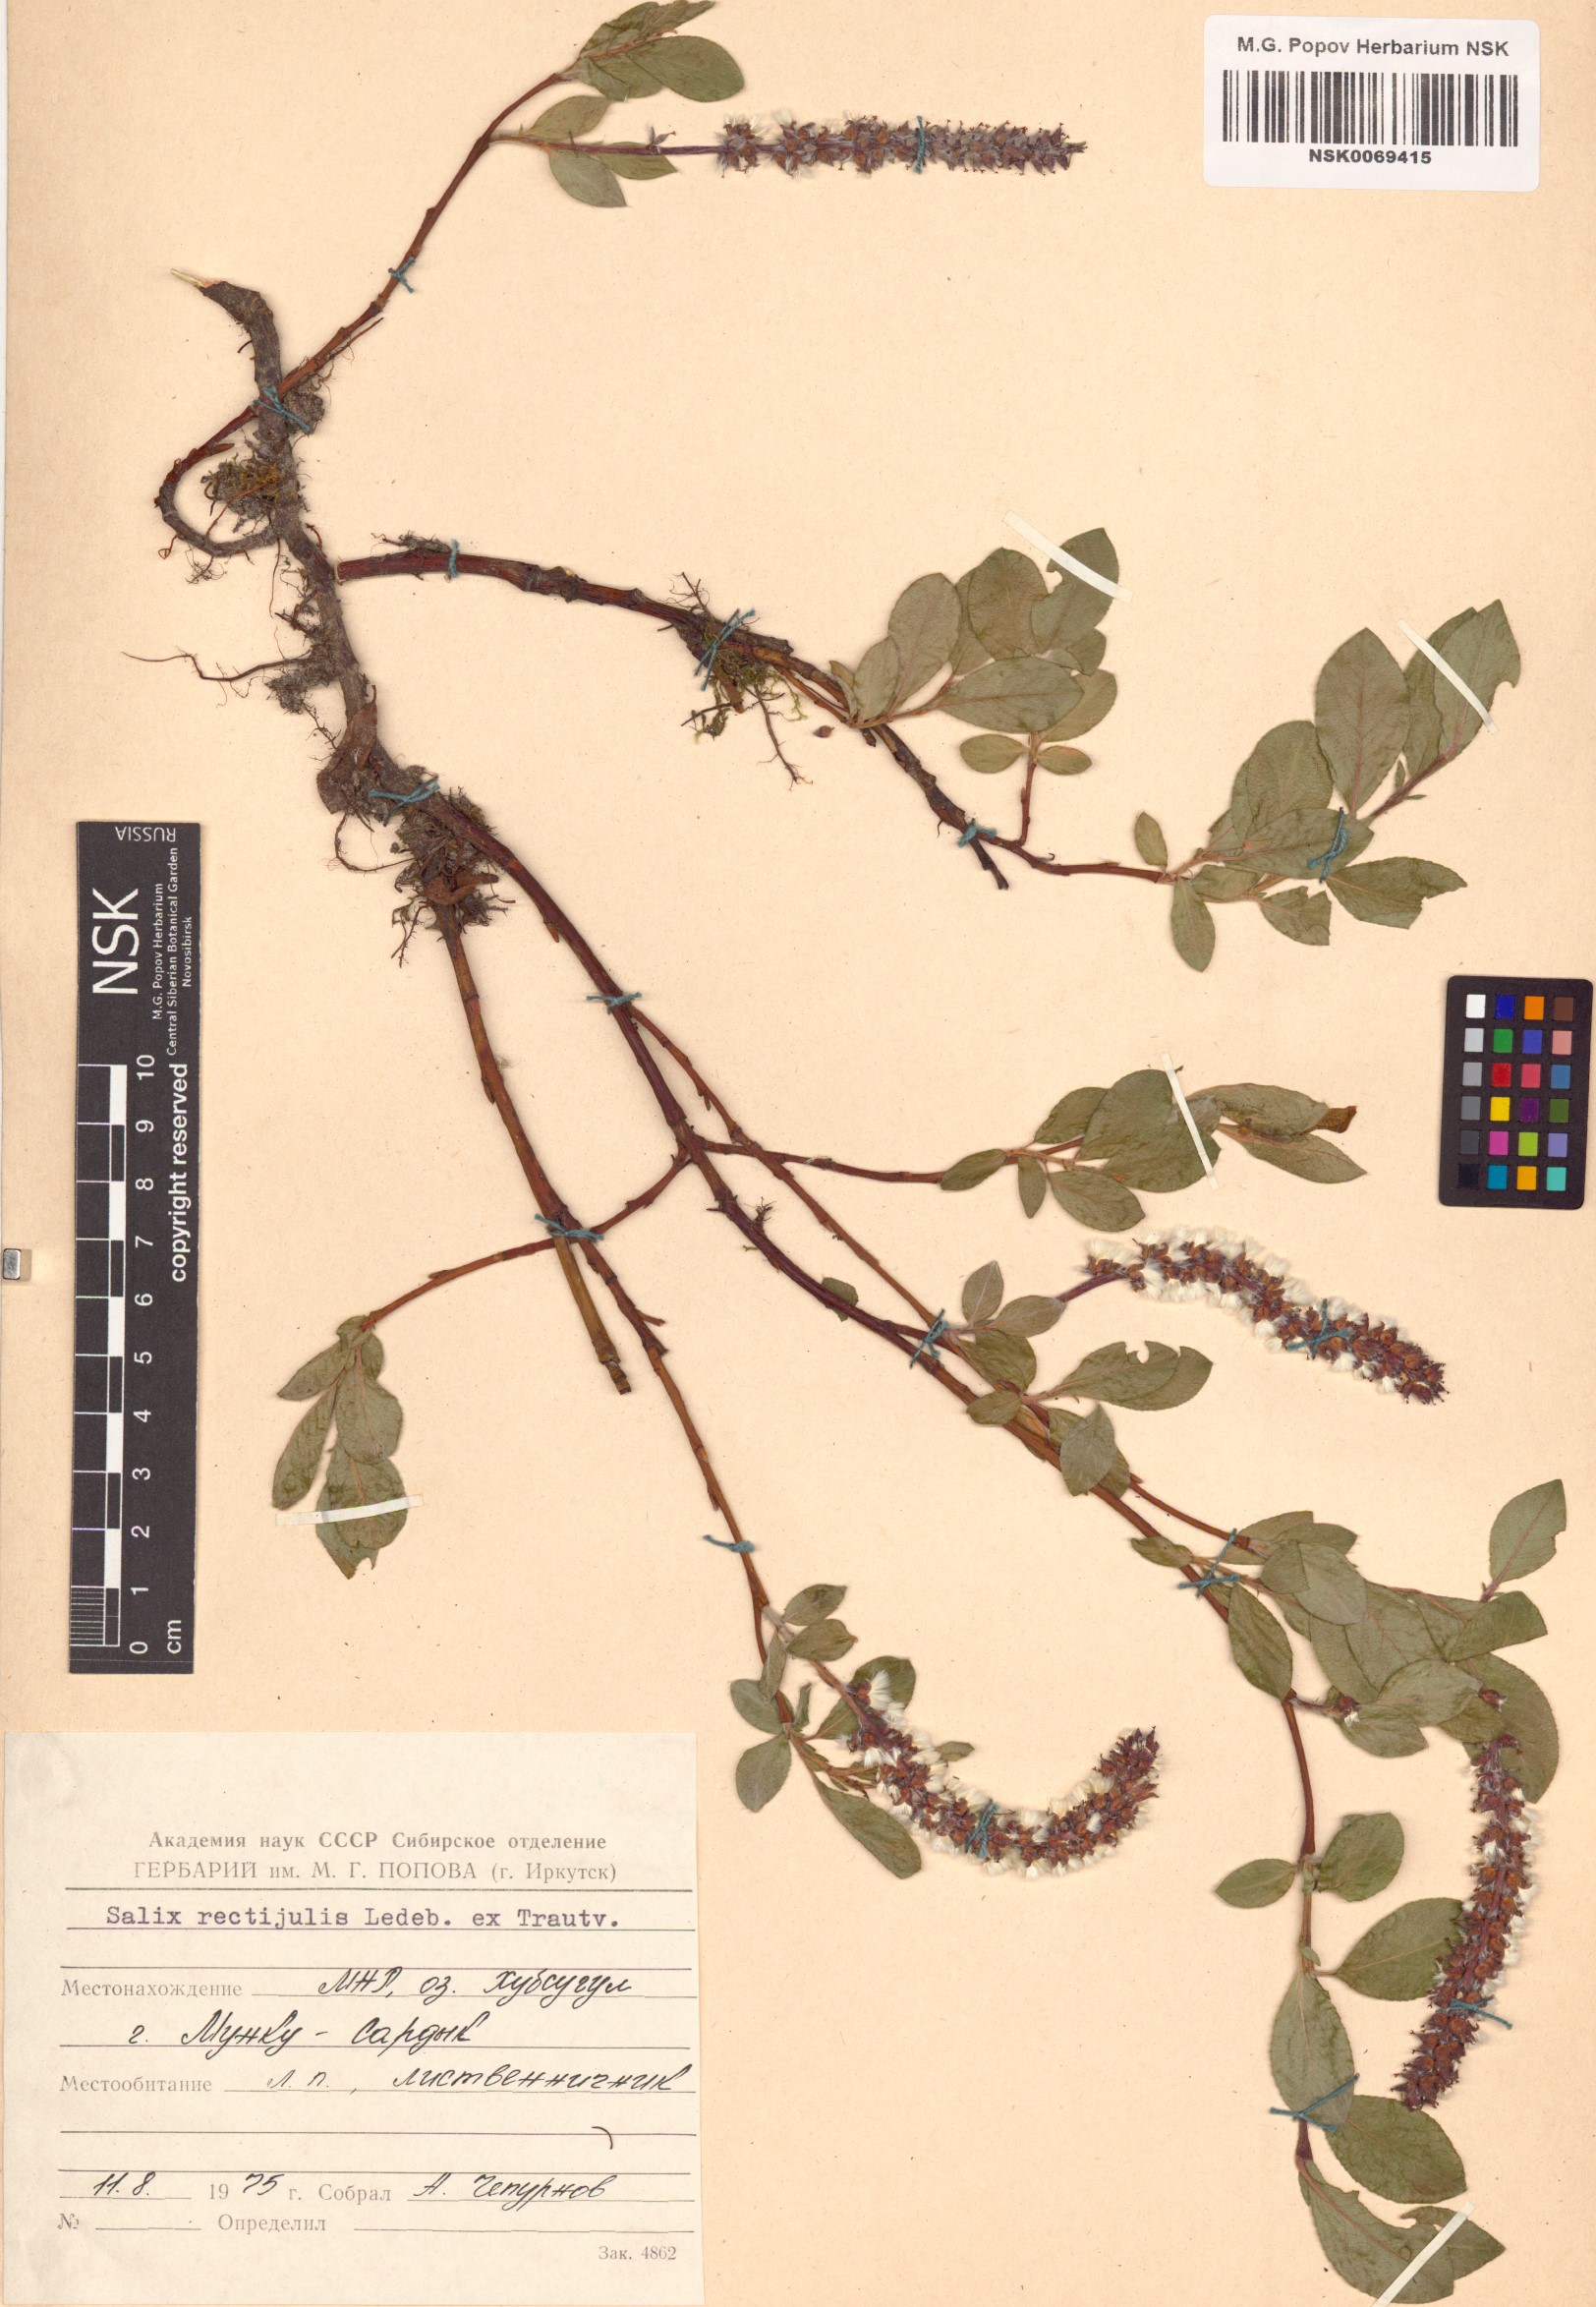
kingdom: Plantae
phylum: Tracheophyta
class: Magnoliopsida
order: Malpighiales
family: Salicaceae
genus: Salix
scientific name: Salix rectijulis
